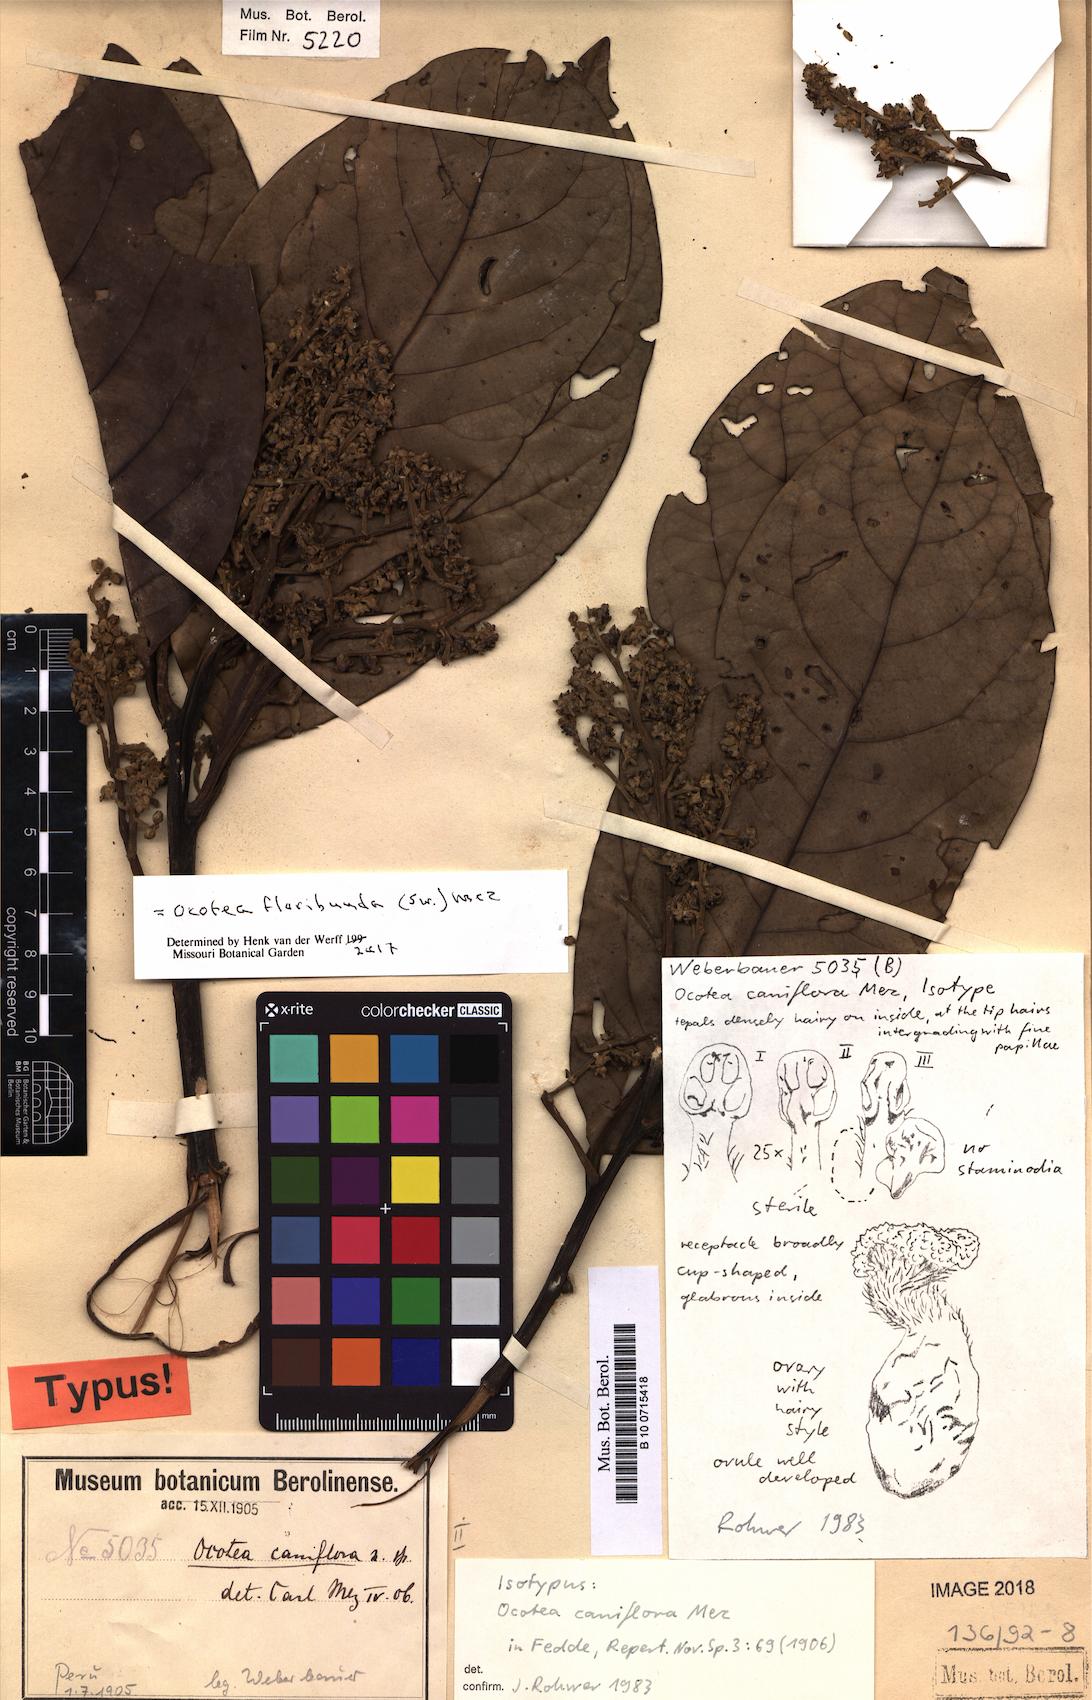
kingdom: Plantae
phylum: Tracheophyta
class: Magnoliopsida
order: Laurales
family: Lauraceae
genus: Ocotea
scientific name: Ocotea floribunda
